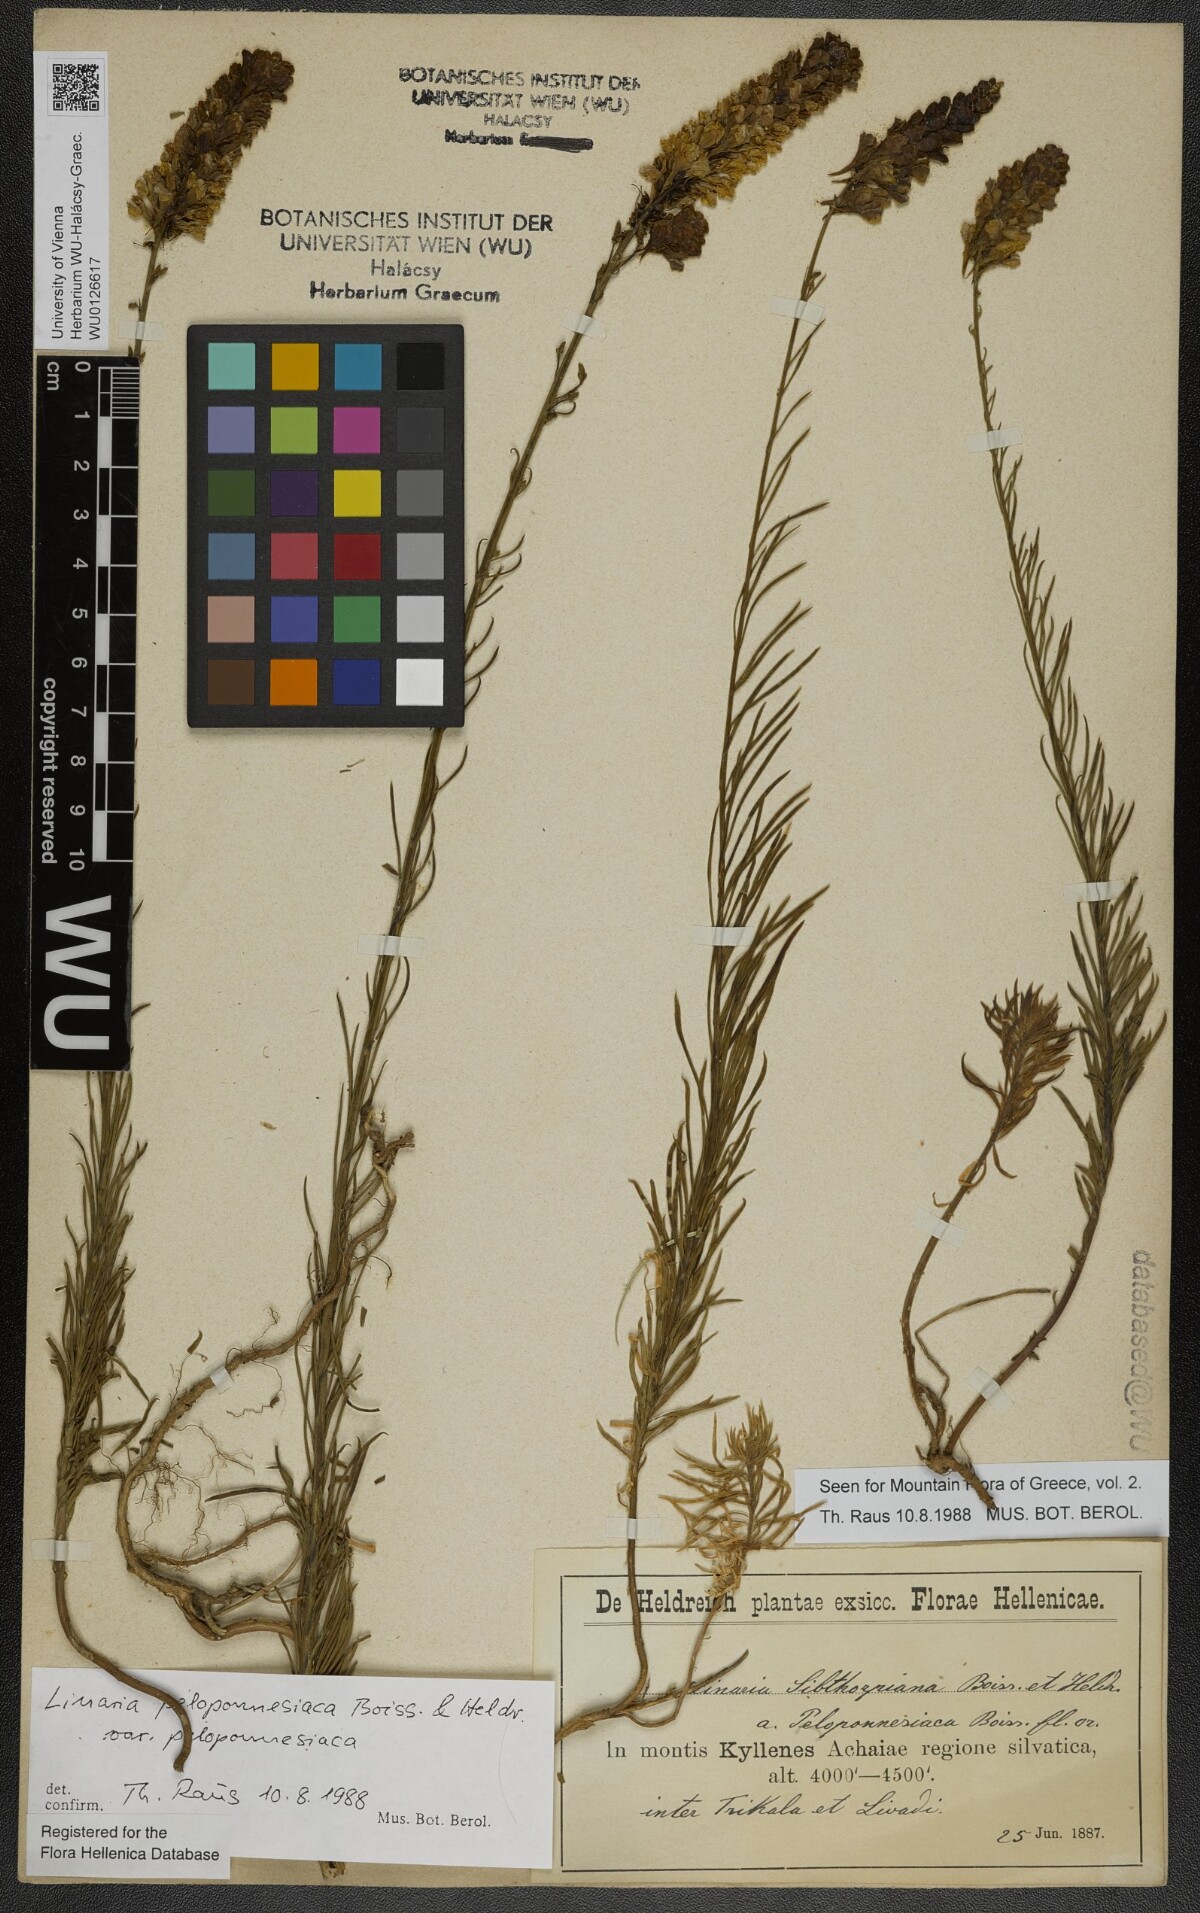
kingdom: Plantae
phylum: Tracheophyta
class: Magnoliopsida
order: Lamiales
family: Plantaginaceae
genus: Linaria
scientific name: Linaria peloponnesiaca
